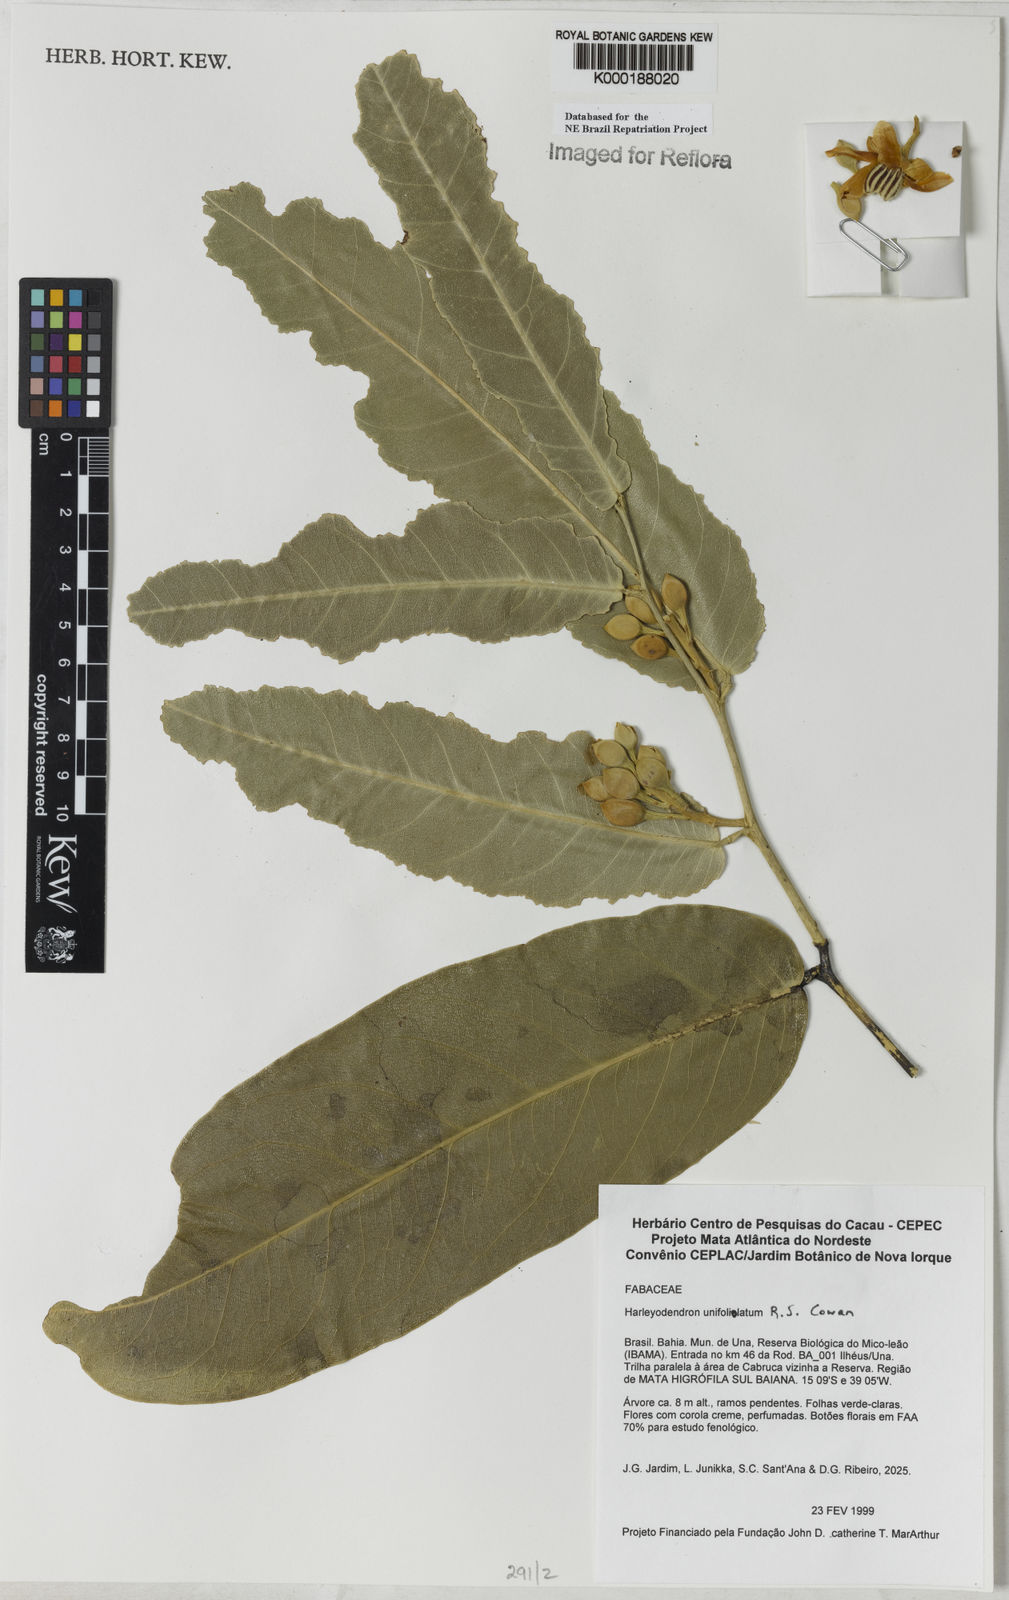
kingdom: Plantae
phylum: Tracheophyta
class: Magnoliopsida
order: Fabales
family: Fabaceae
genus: Harleyodendron
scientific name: Harleyodendron unifoliolatum
